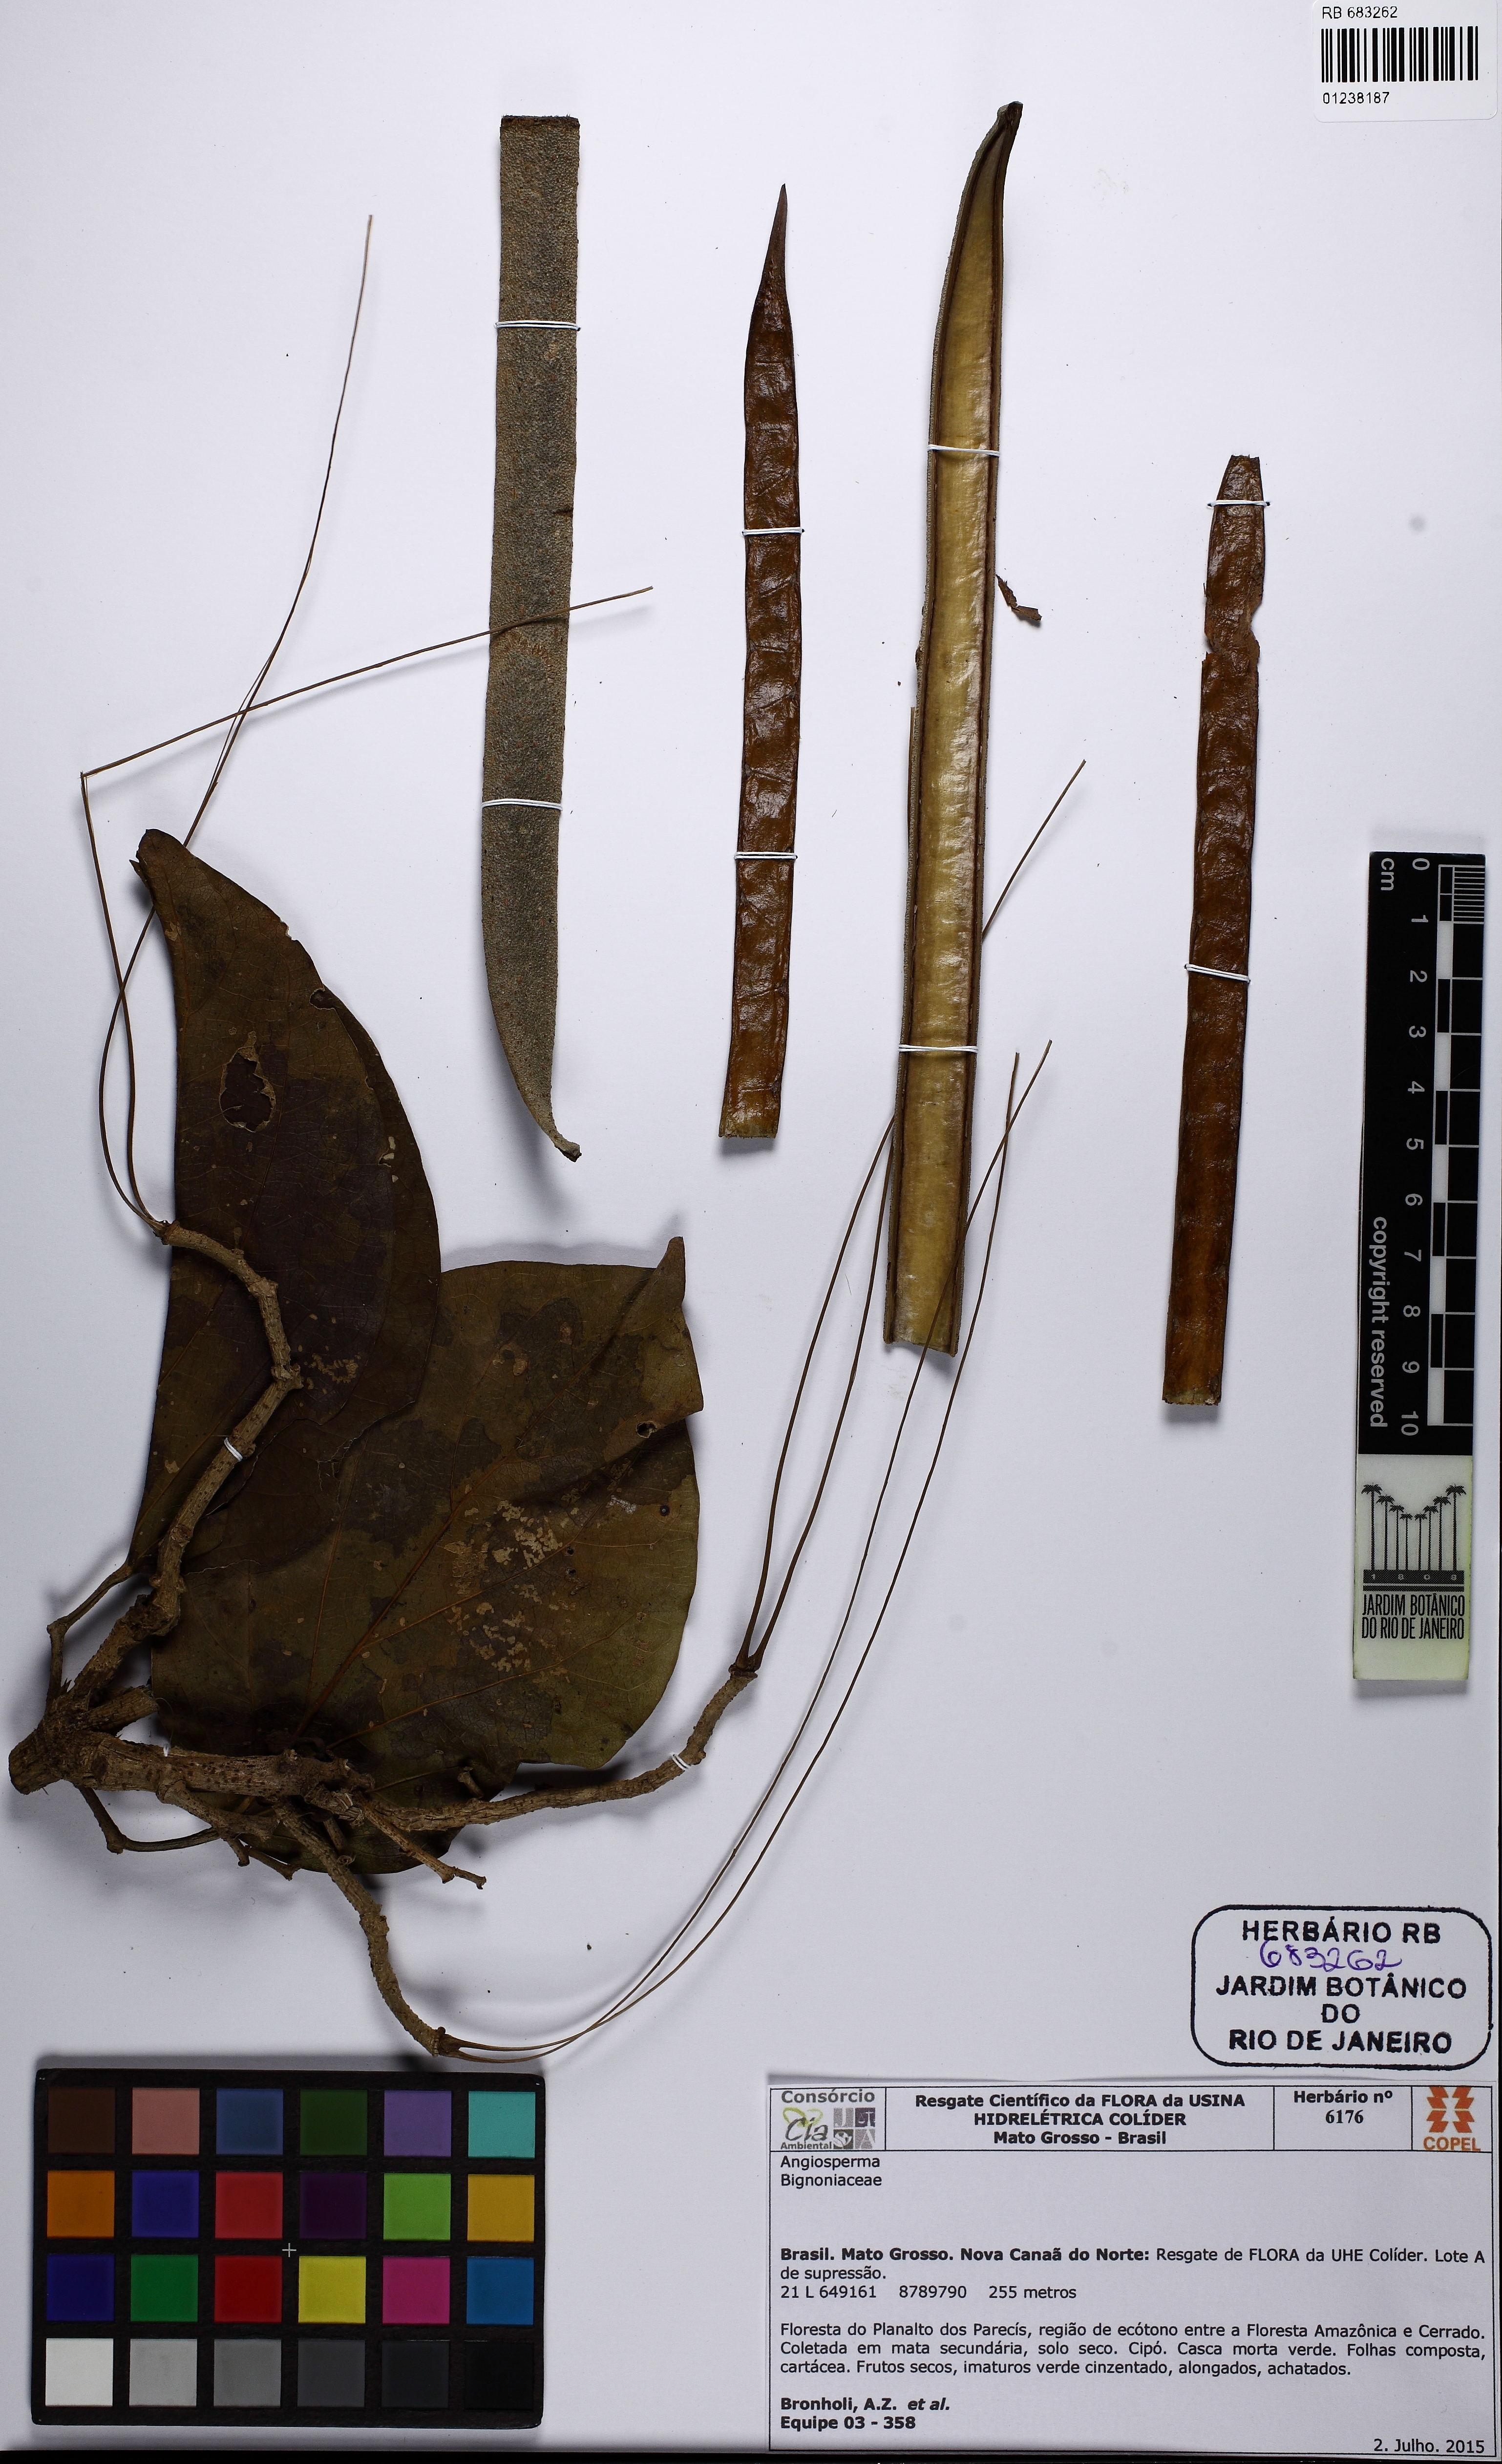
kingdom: Plantae
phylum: Tracheophyta
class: Magnoliopsida
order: Lamiales
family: Bignoniaceae
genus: Tanaecium
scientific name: Tanaecium pyramidatum
